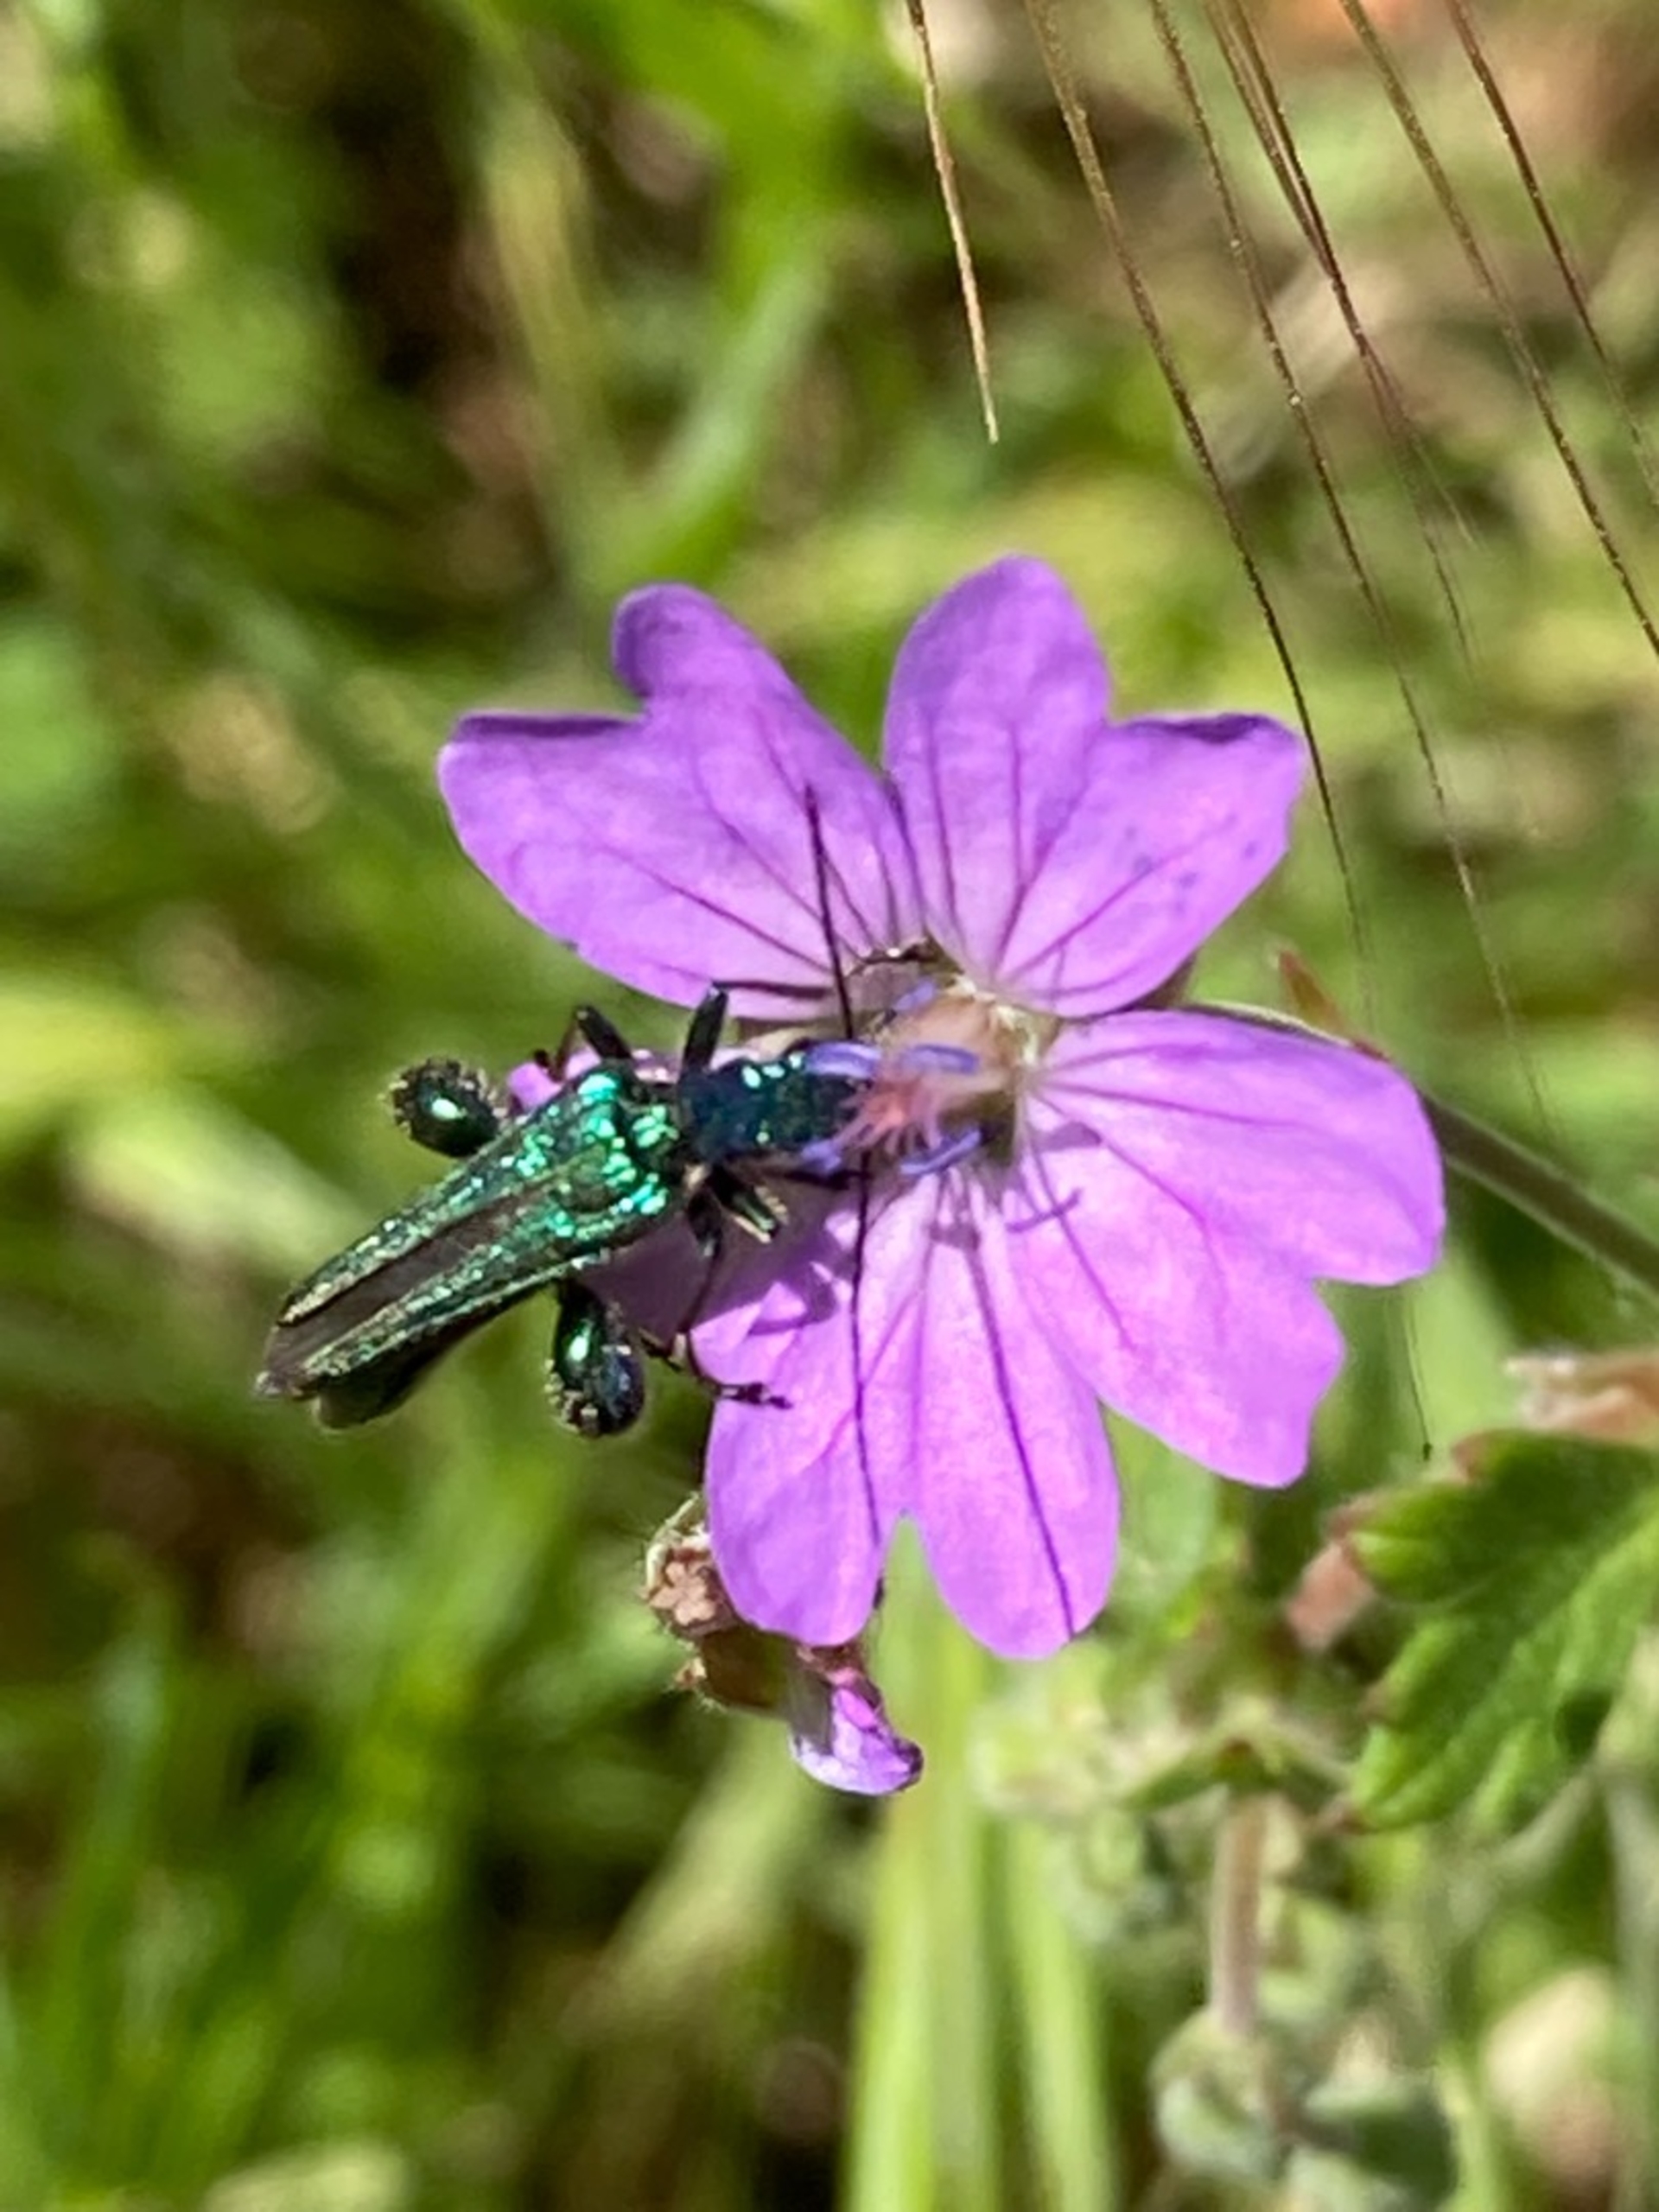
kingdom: Animalia
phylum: Arthropoda
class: Insecta
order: Coleoptera
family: Oedemeridae
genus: Oedemera
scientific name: Oedemera nobilis
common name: Tyklårssolbille
